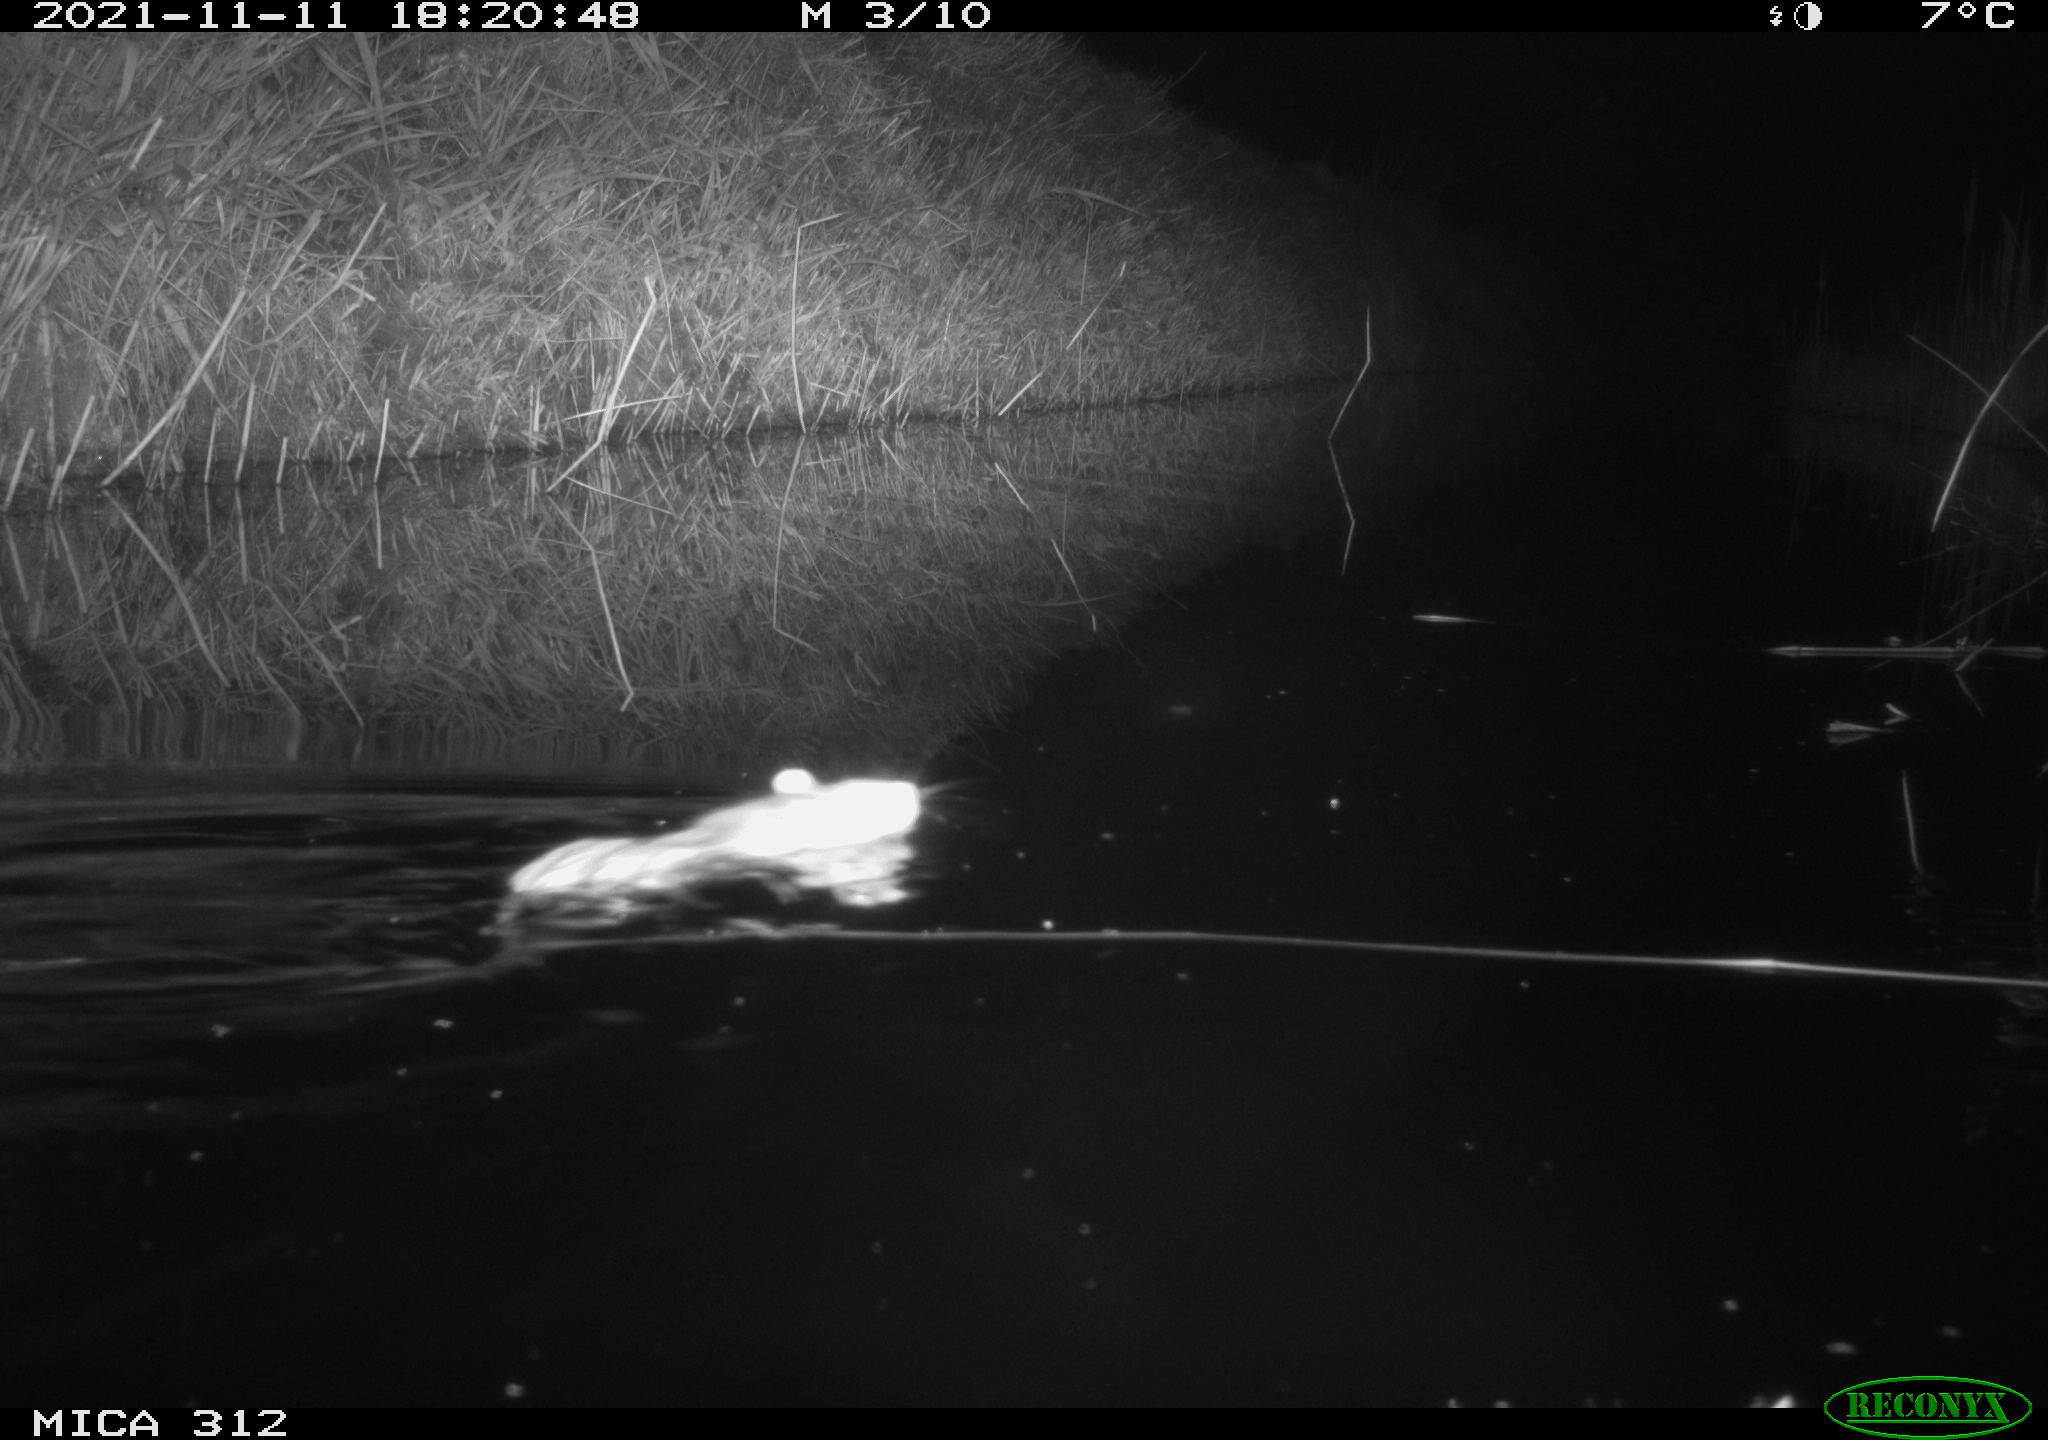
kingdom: Animalia
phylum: Chordata
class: Mammalia
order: Rodentia
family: Muridae
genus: Rattus
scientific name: Rattus norvegicus
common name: Brown rat
